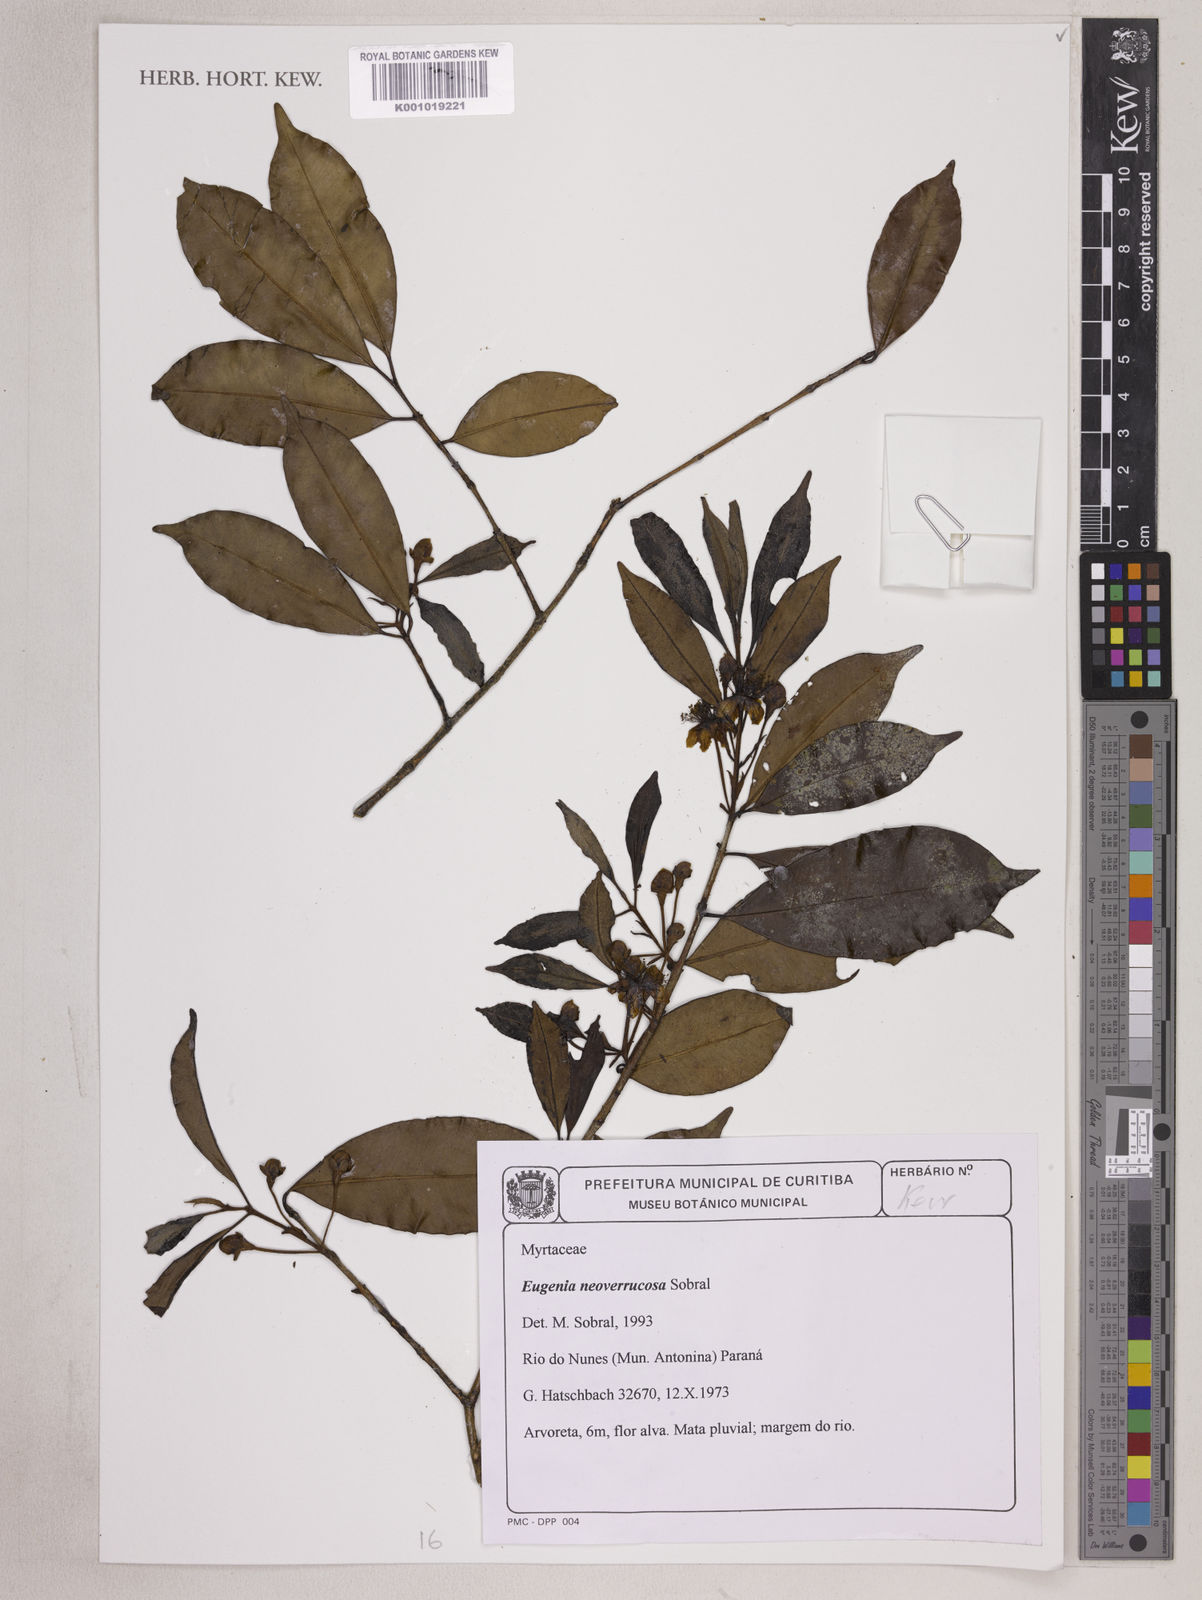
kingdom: Plantae
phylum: Tracheophyta
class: Magnoliopsida
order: Myrtales
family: Myrtaceae
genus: Eugenia
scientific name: Eugenia neoverrucosa
